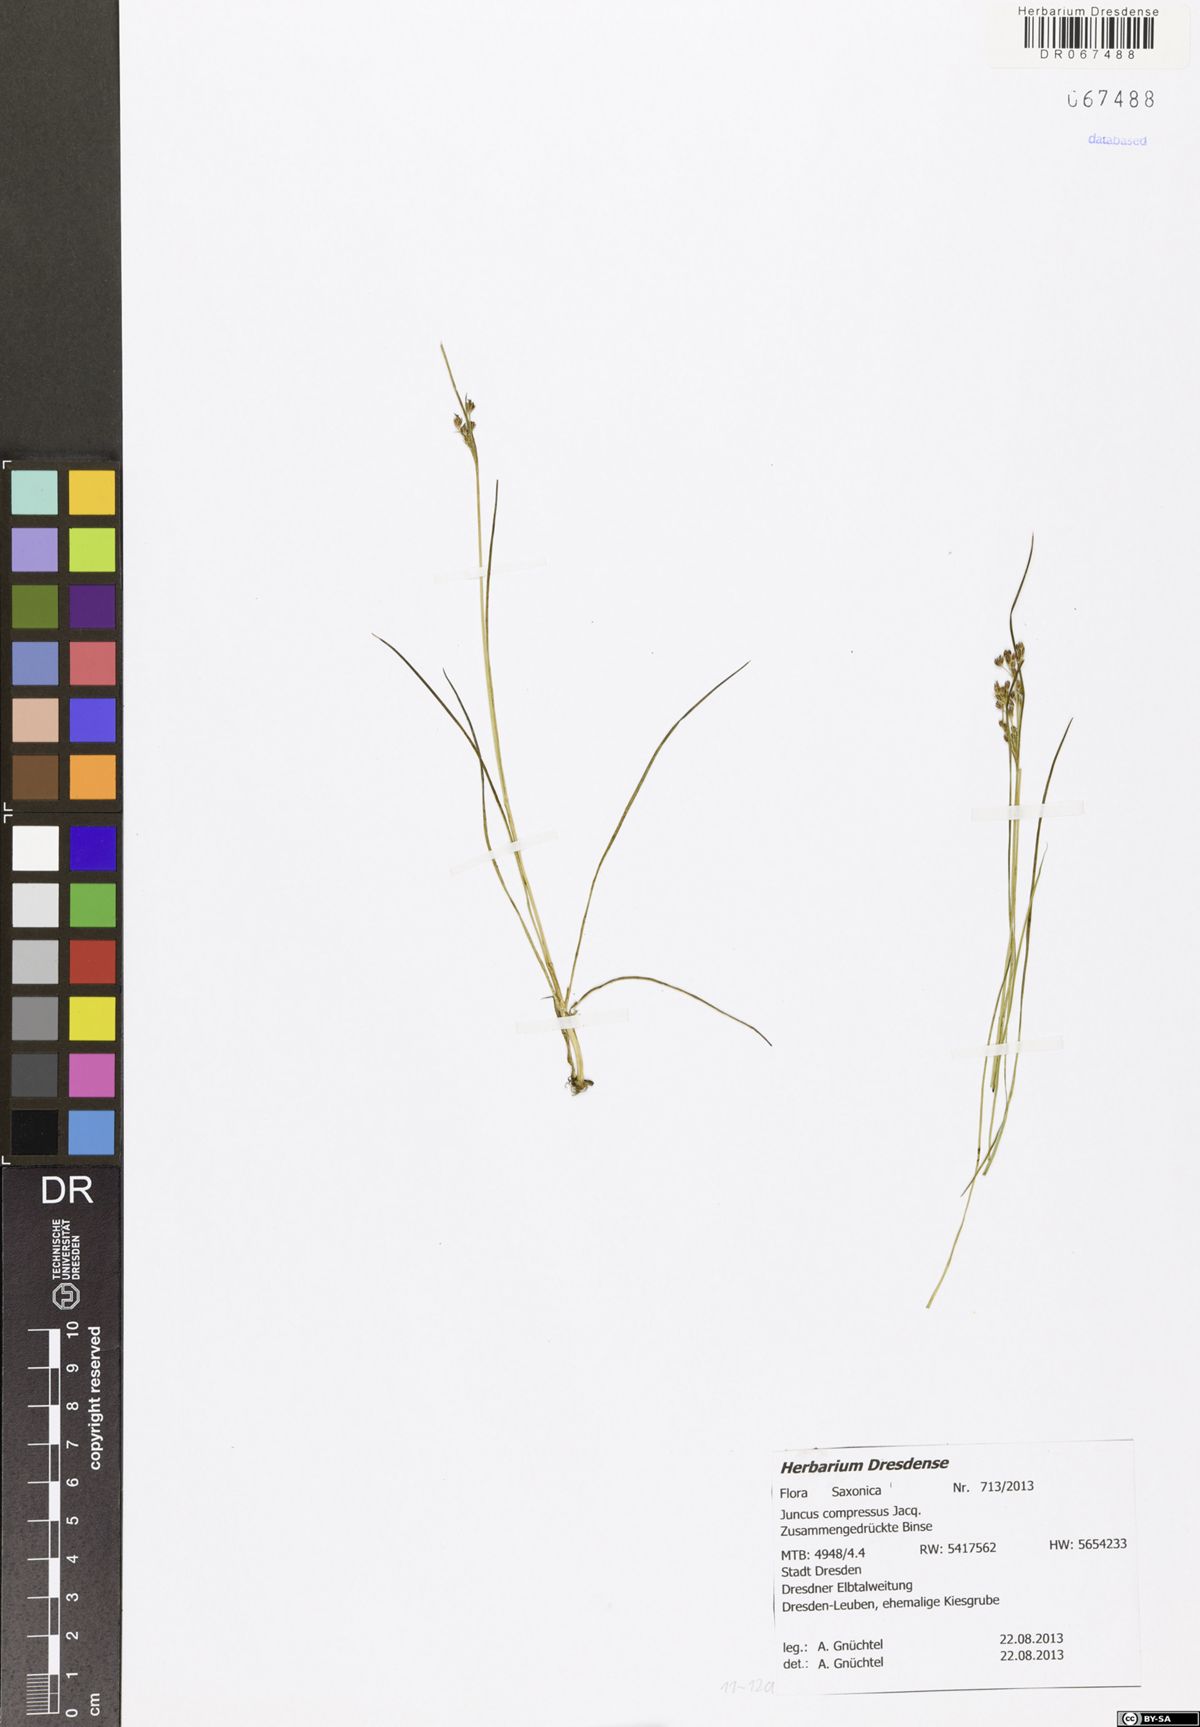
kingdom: Plantae
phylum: Tracheophyta
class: Liliopsida
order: Poales
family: Juncaceae
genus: Juncus
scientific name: Juncus compressus
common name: Round-fruited rush
